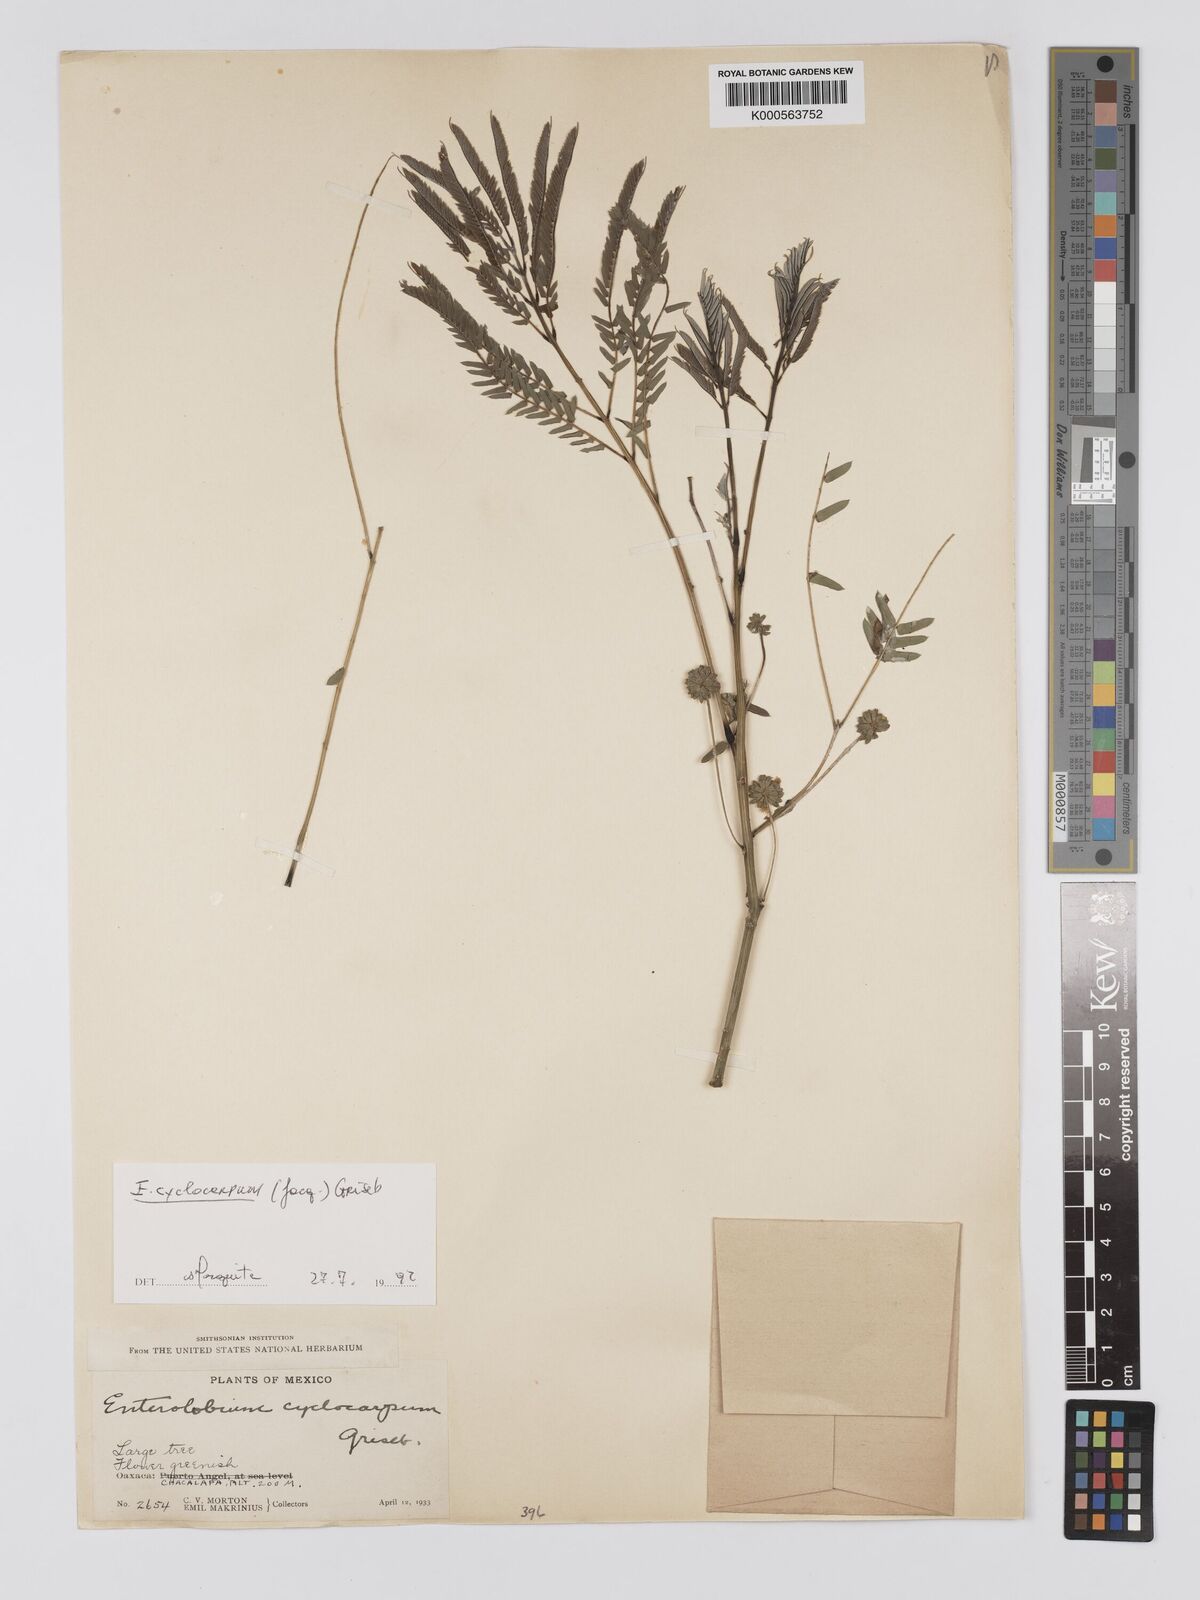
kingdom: Plantae
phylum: Tracheophyta
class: Magnoliopsida
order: Fabales
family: Fabaceae
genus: Enterolobium
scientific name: Enterolobium cyclocarpum
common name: Ear tree
